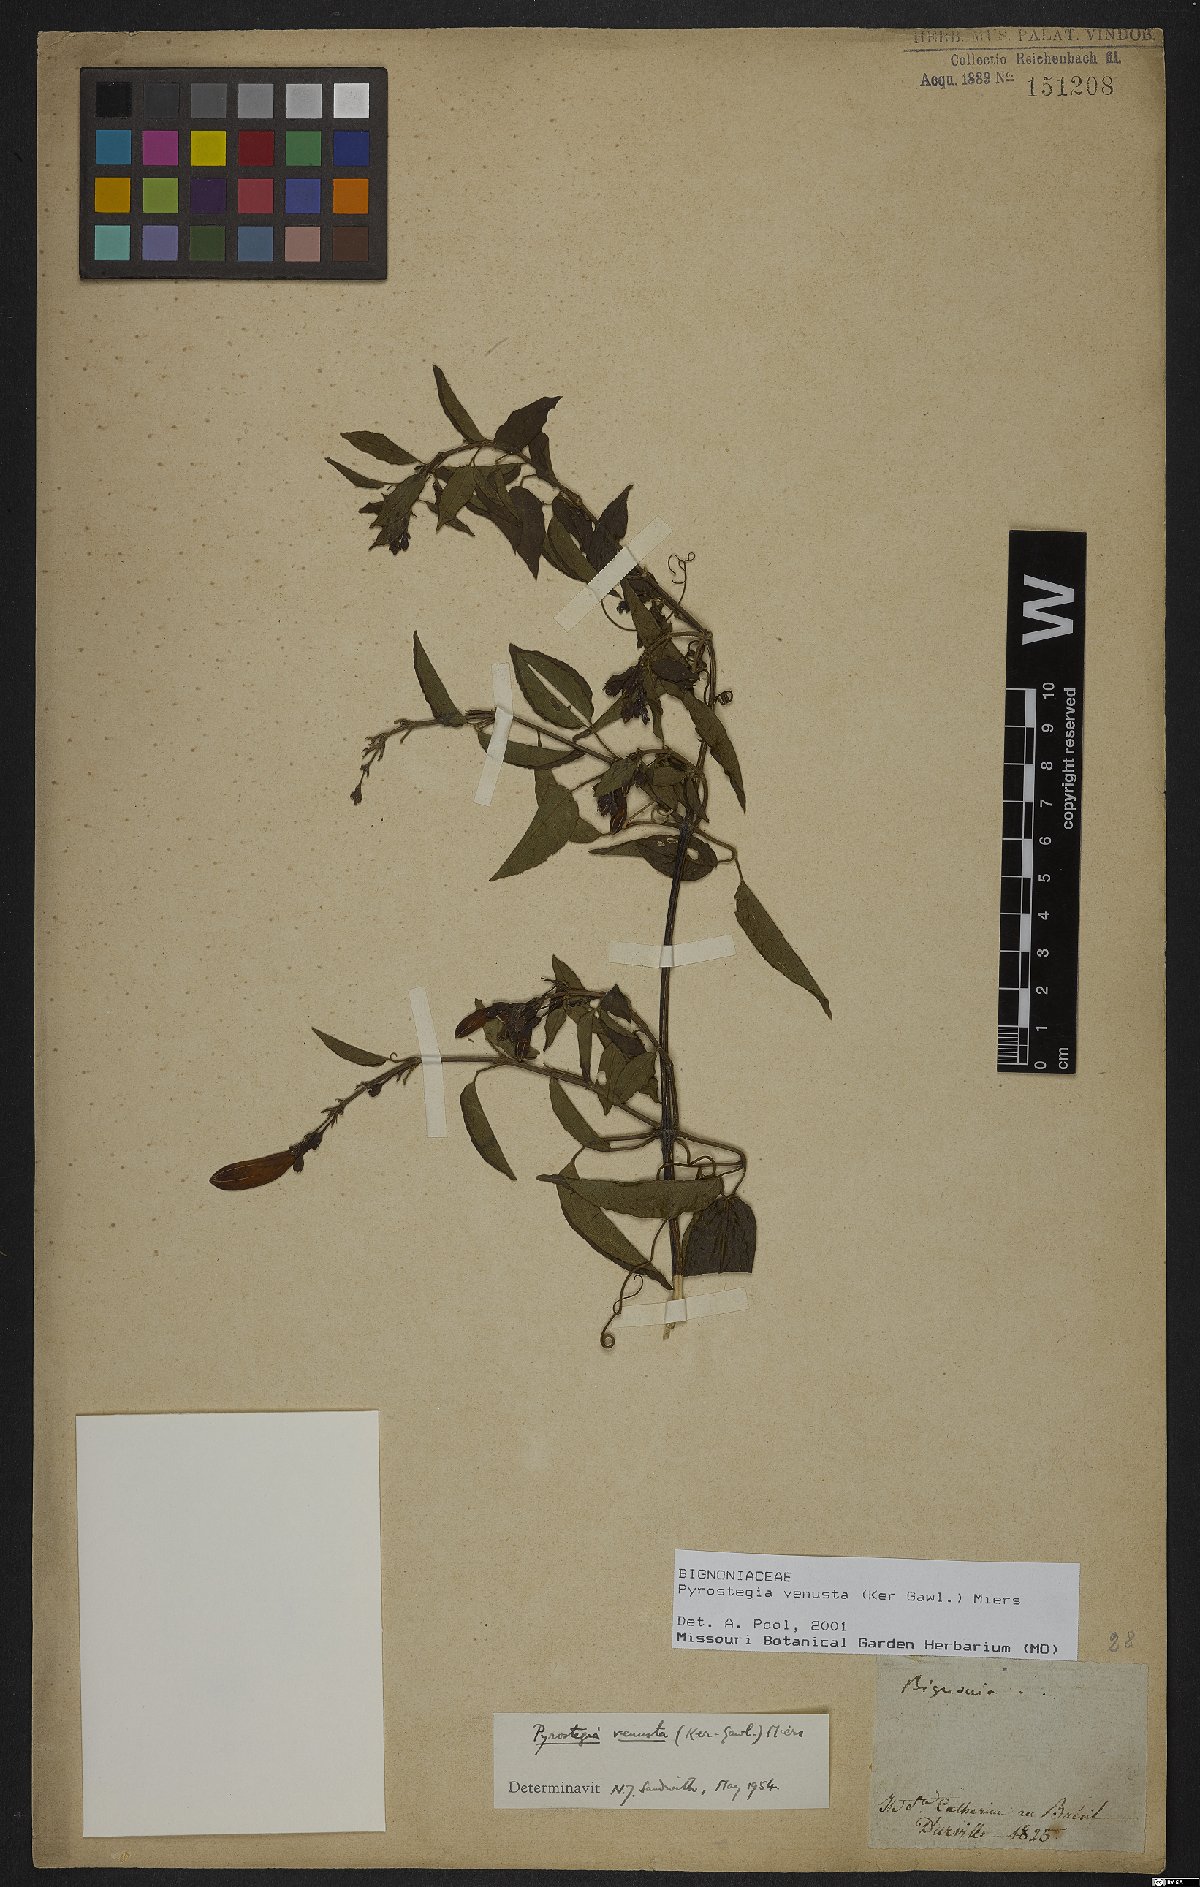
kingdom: Plantae
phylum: Tracheophyta
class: Magnoliopsida
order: Lamiales
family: Bignoniaceae
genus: Pyrostegia
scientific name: Pyrostegia venusta
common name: Flamevine
